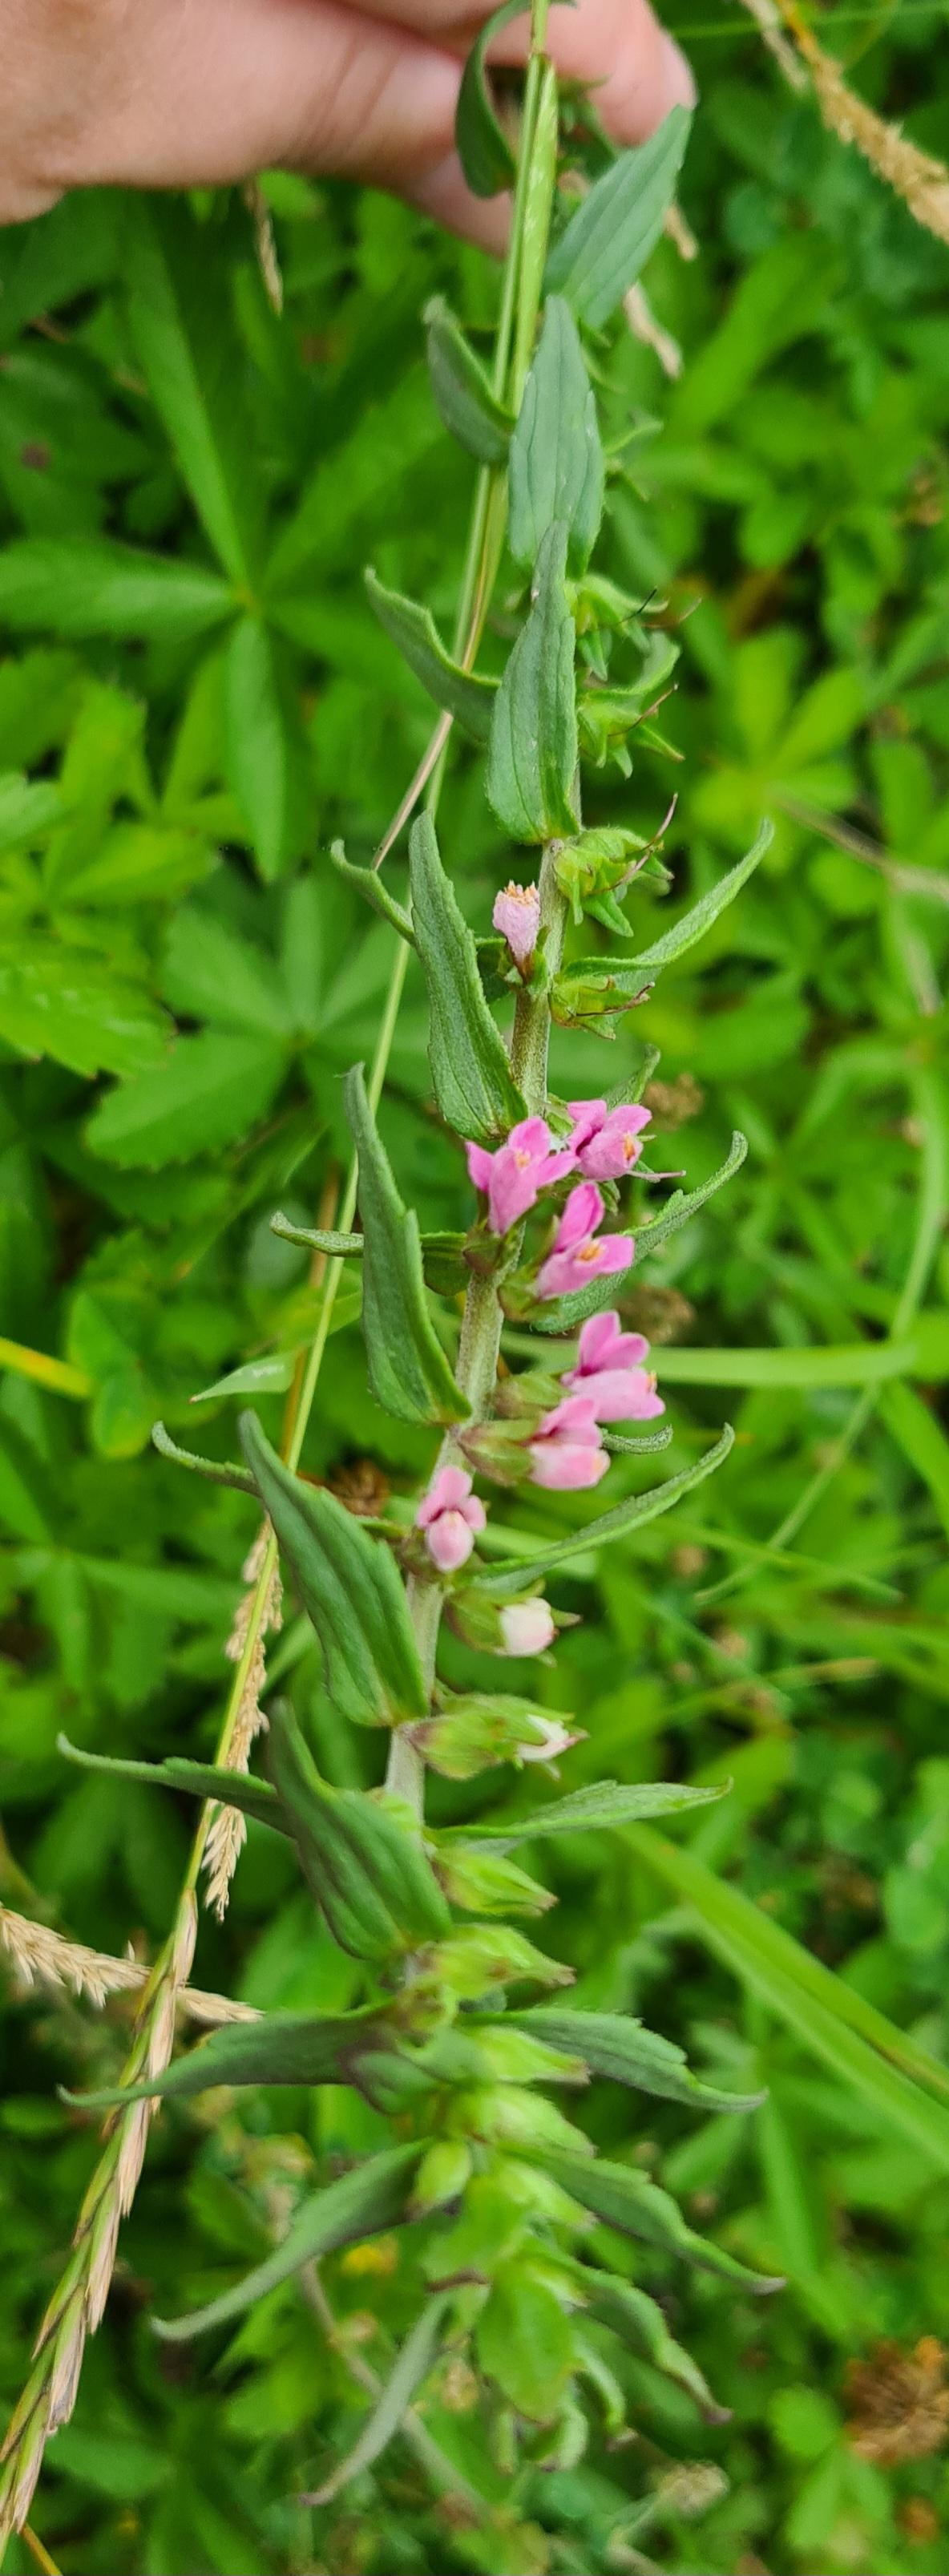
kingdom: Plantae
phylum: Tracheophyta
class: Magnoliopsida
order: Lamiales
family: Orobanchaceae
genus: Odontites
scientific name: Odontites vernus
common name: Mark-rødtop
